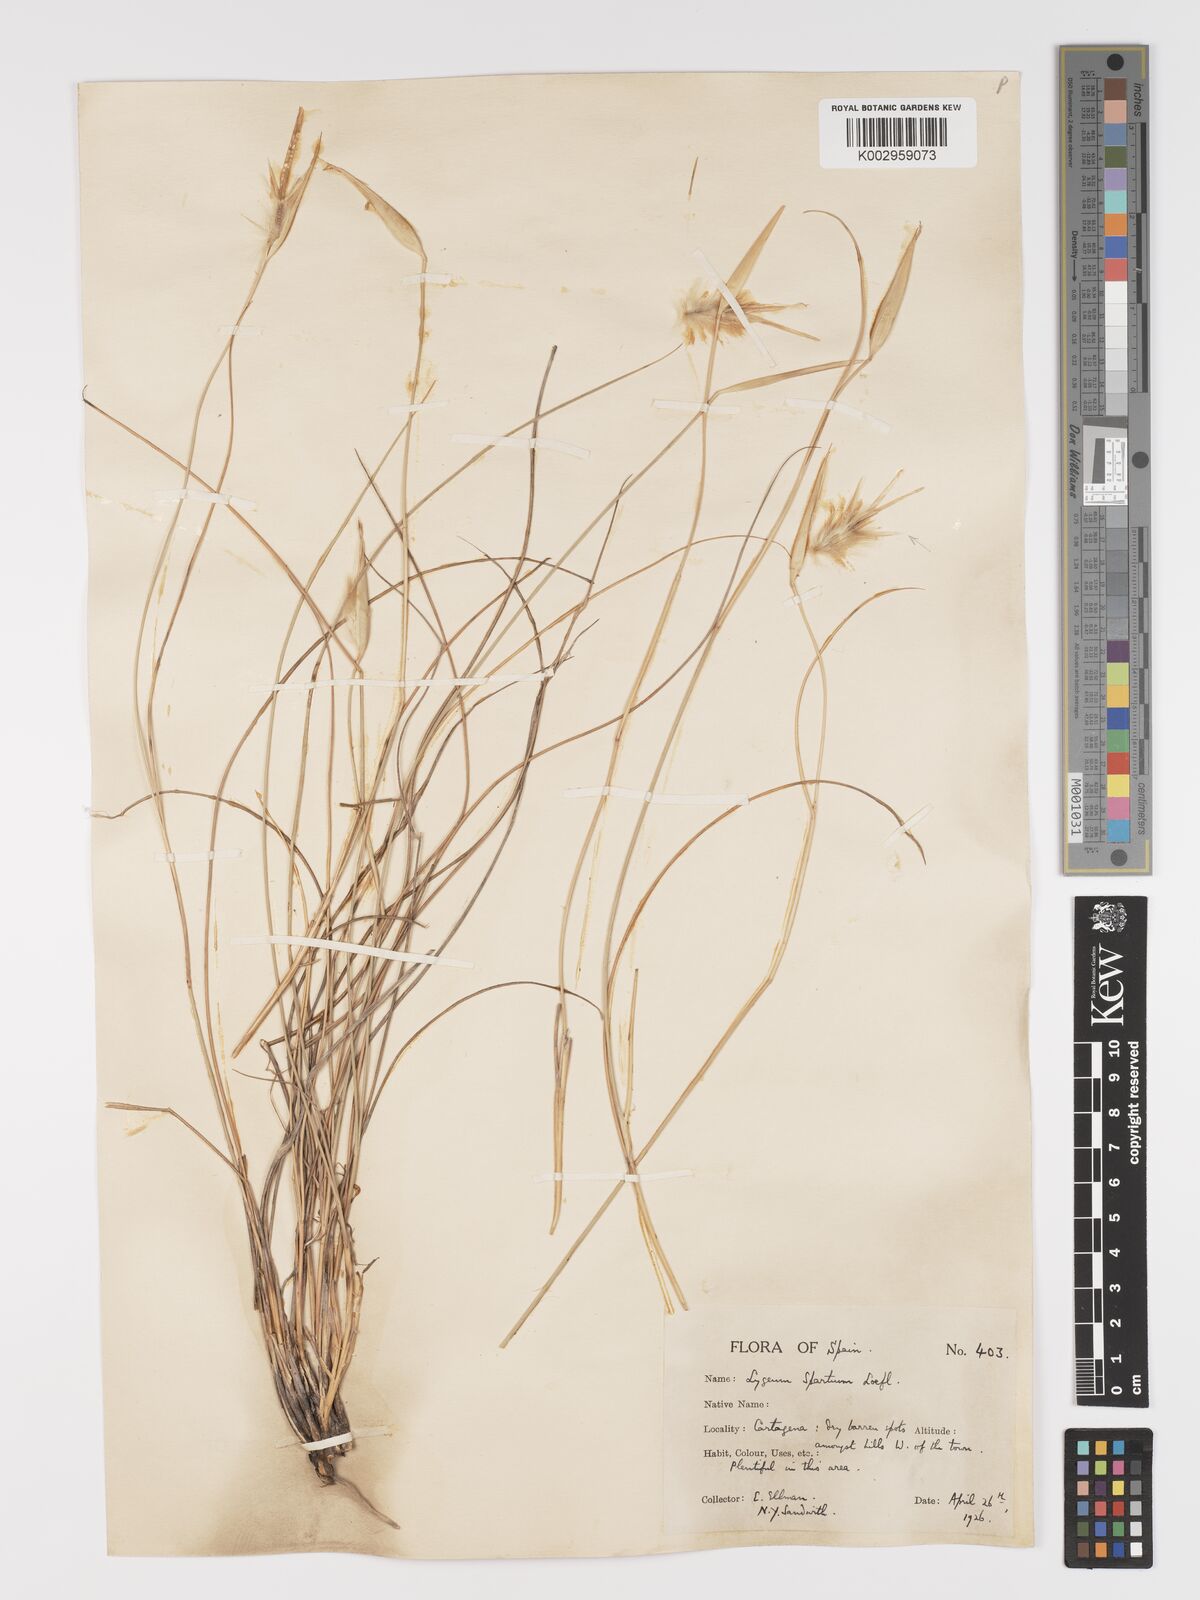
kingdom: Plantae
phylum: Tracheophyta
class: Liliopsida
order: Poales
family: Poaceae
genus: Lygeum
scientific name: Lygeum spartum
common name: Albardine
